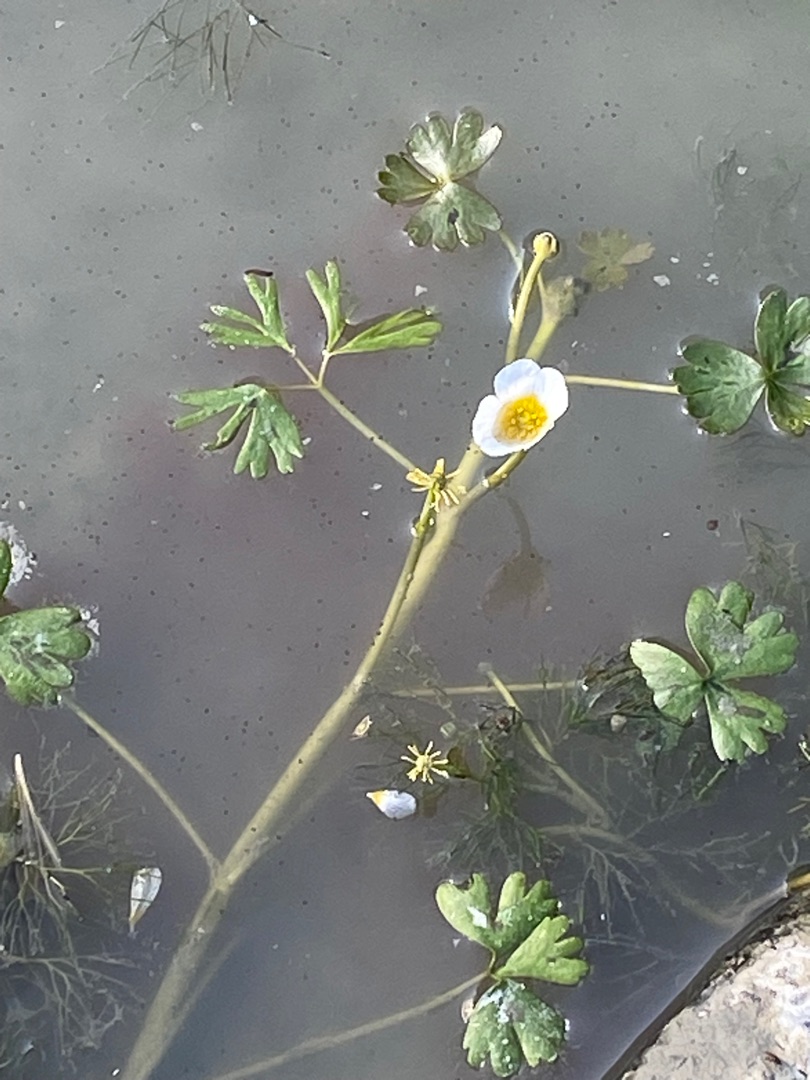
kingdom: Plantae
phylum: Tracheophyta
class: Magnoliopsida
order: Ranunculales
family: Ranunculaceae
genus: Ranunculus
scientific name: Ranunculus aquatilis
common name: Almindelig vandranunkel
